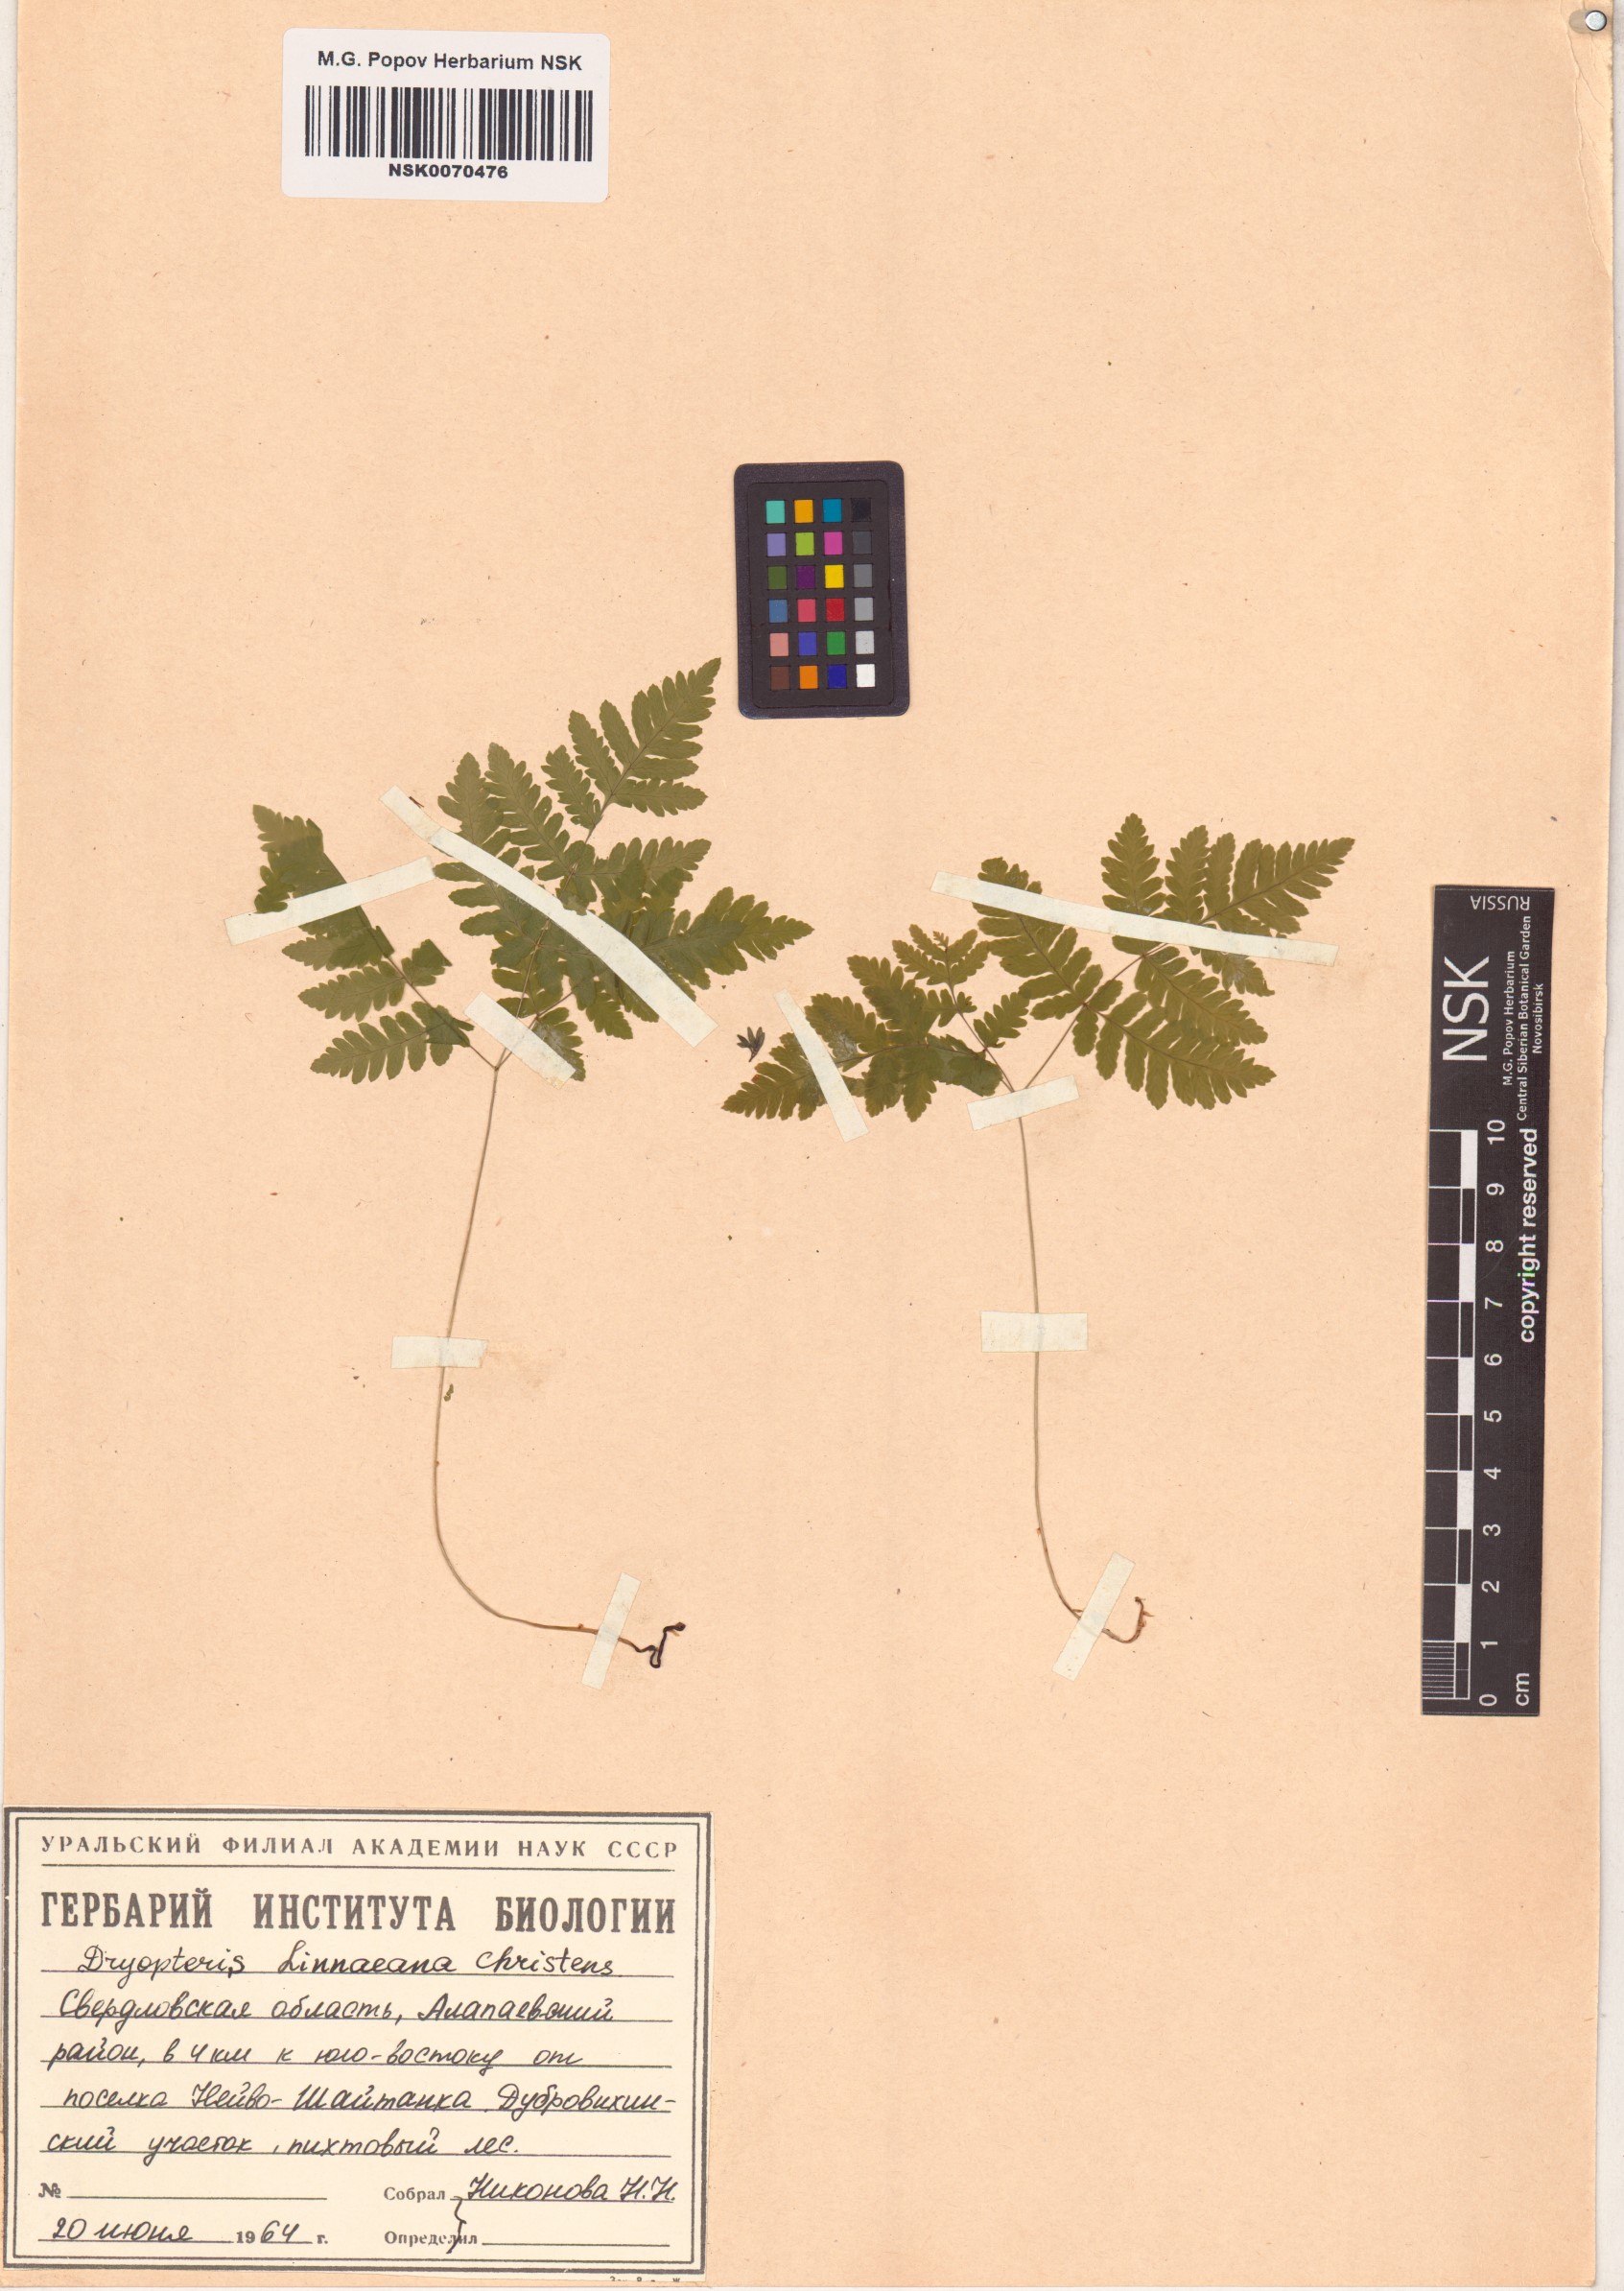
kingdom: Plantae
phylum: Tracheophyta
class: Polypodiopsida
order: Polypodiales
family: Cystopteridaceae
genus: Gymnocarpium
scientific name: Gymnocarpium dryopteris
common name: Oak fern
